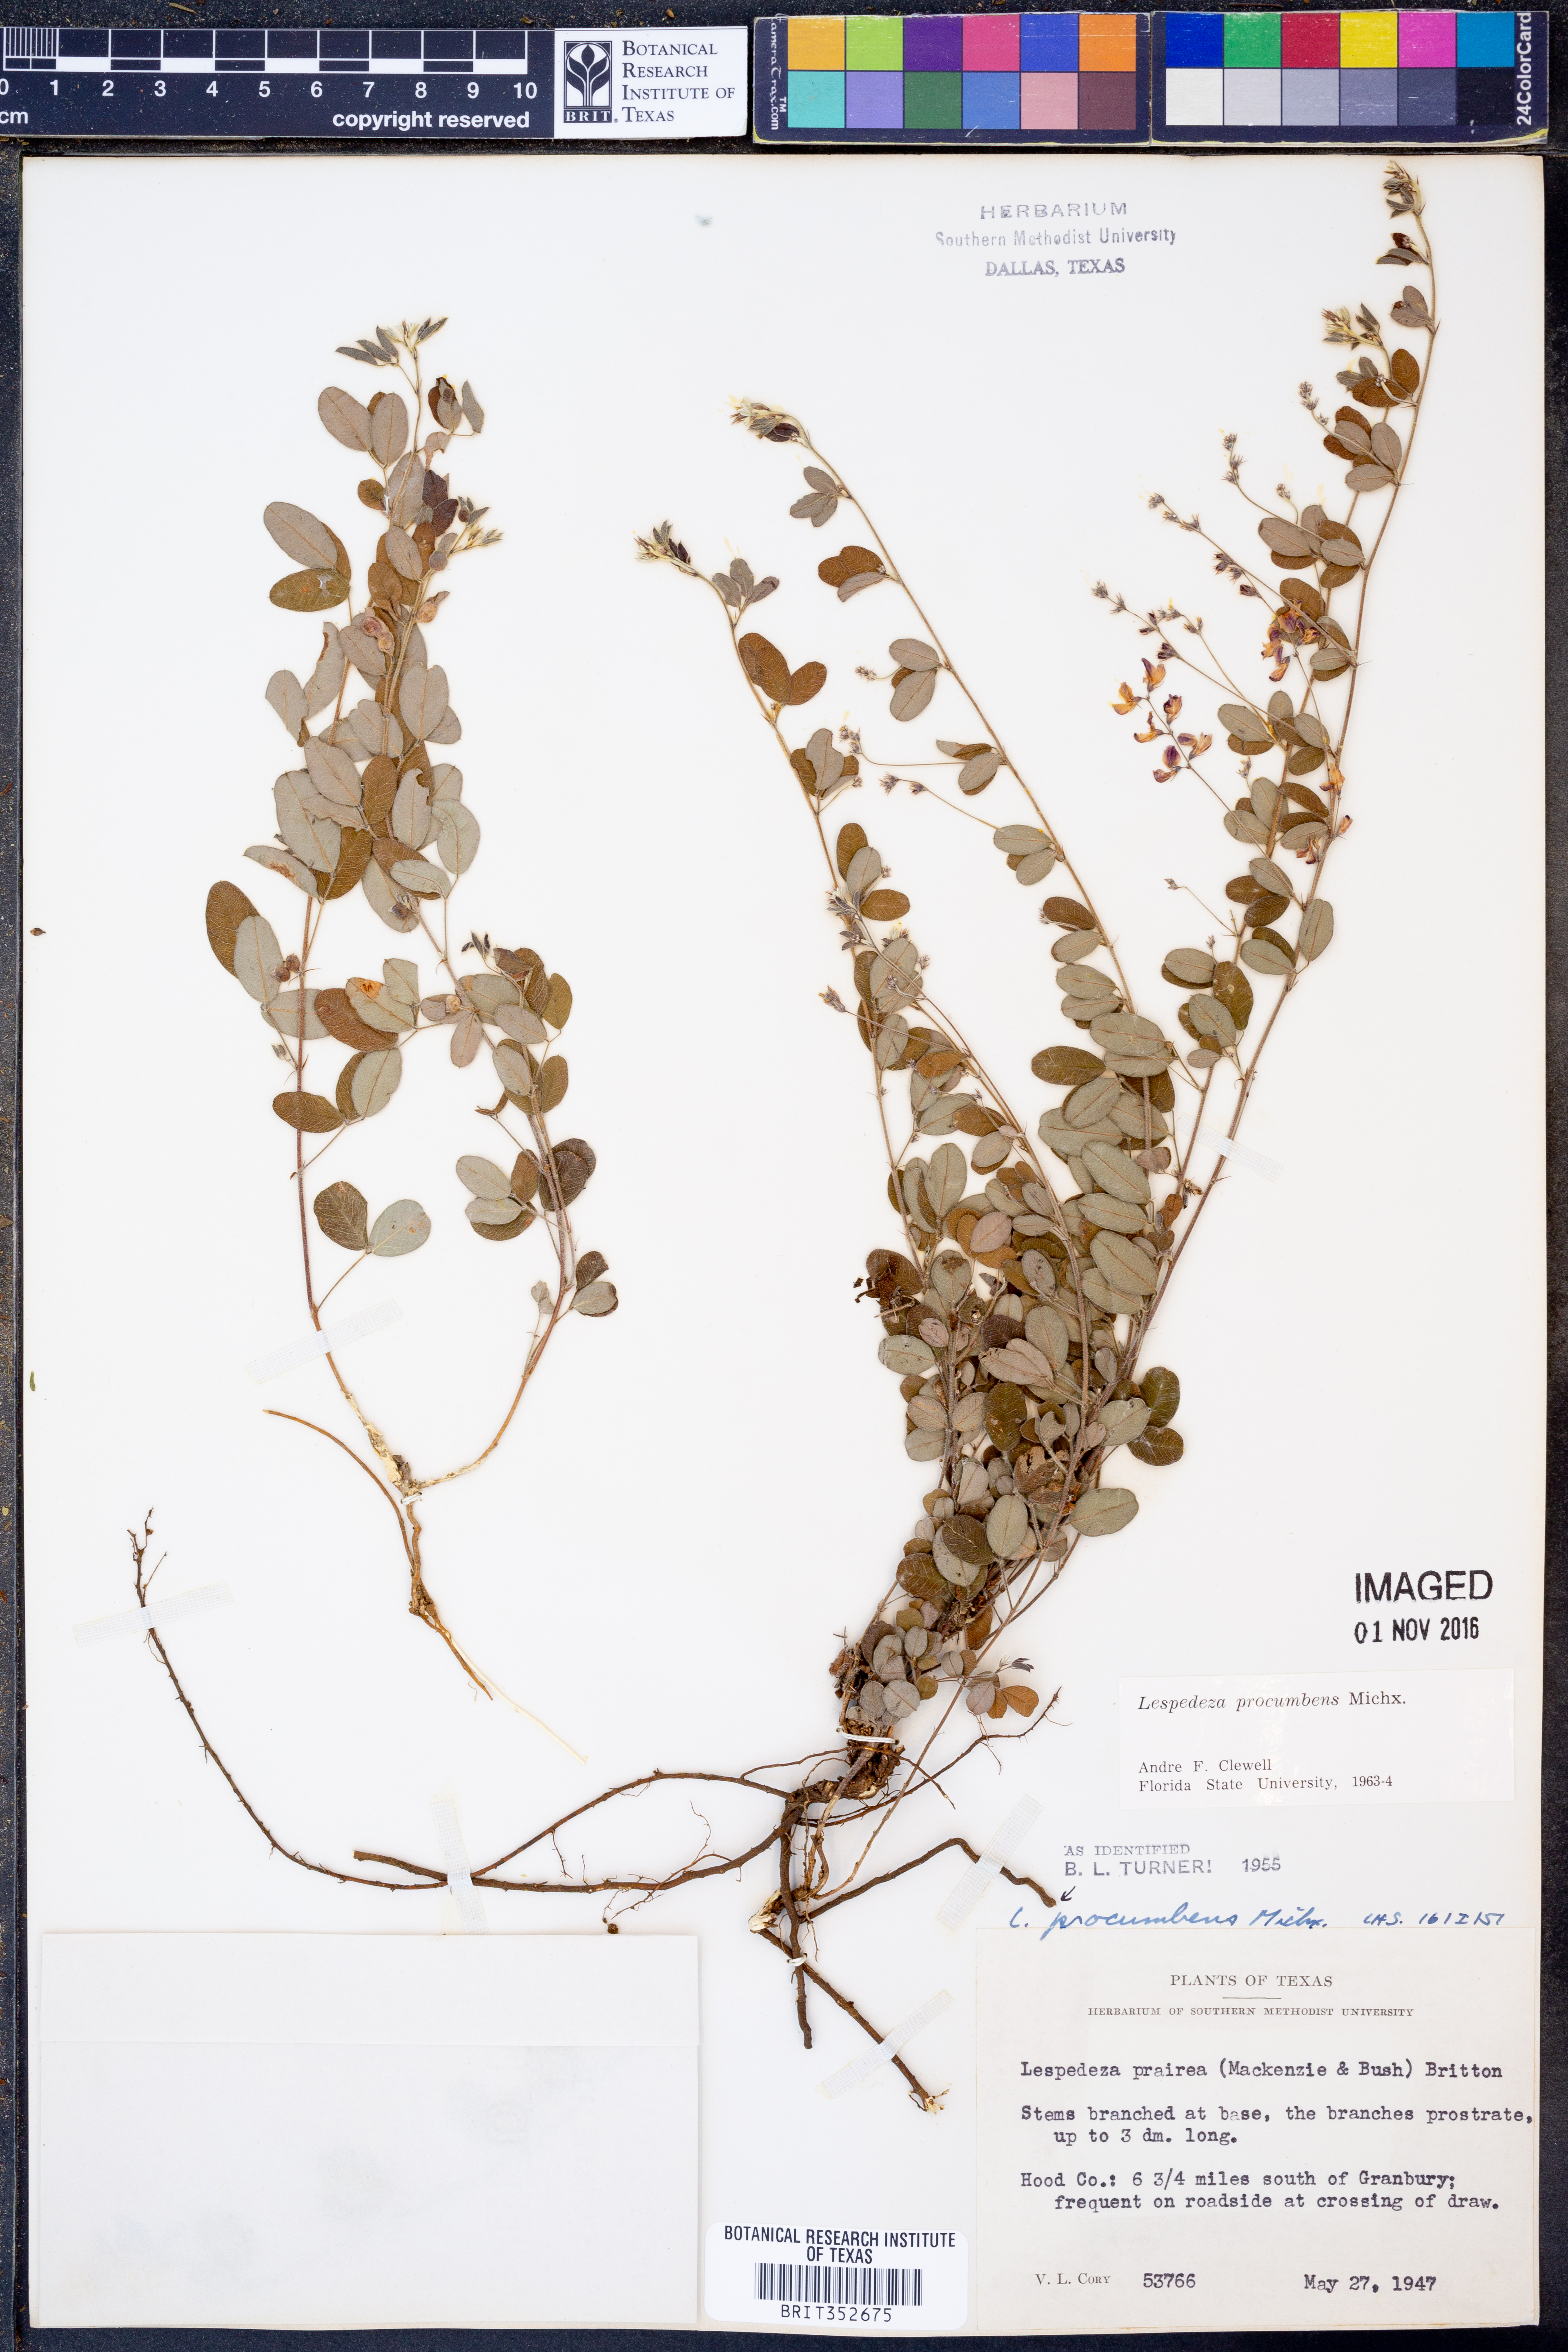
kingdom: Plantae
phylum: Tracheophyta
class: Magnoliopsida
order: Fabales
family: Fabaceae
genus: Lespedeza
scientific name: Lespedeza procumbens
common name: Downy trailing bush-clover
